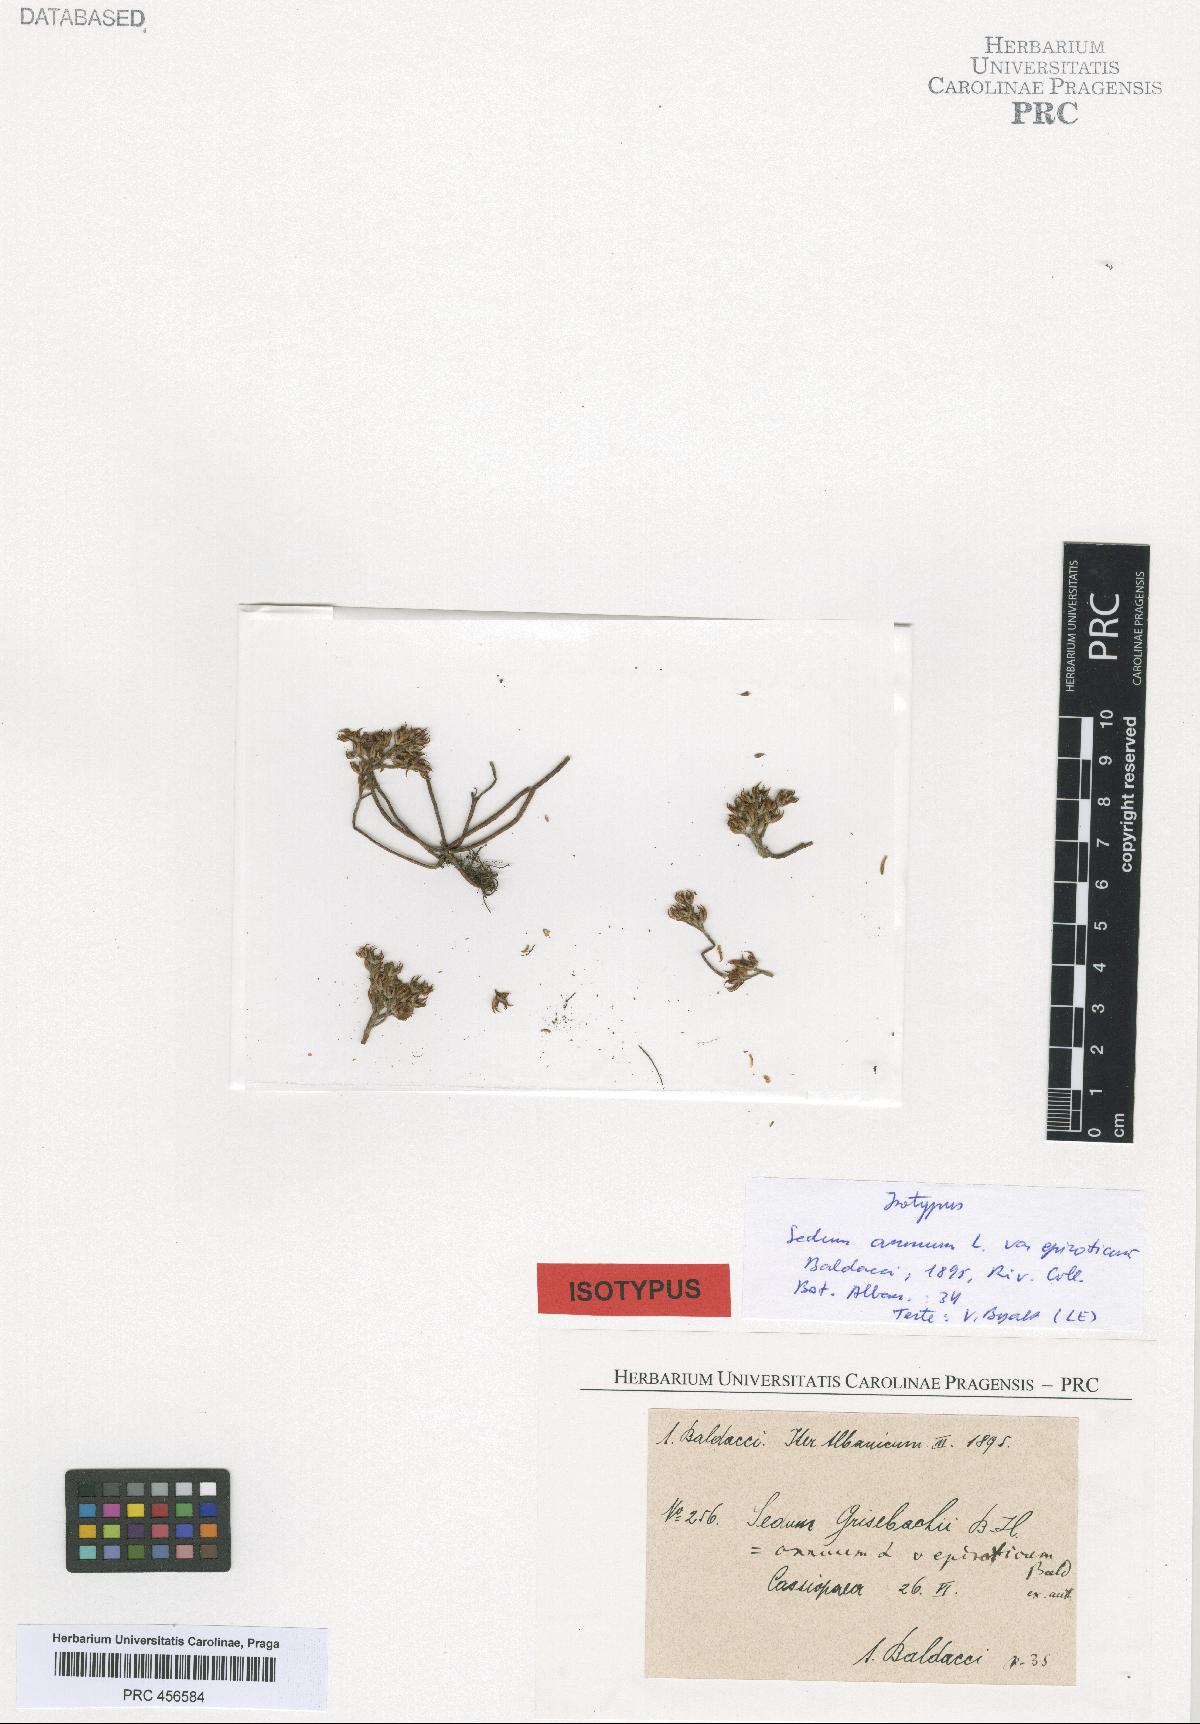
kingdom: Plantae
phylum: Tracheophyta
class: Magnoliopsida
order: Saxifragales
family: Crassulaceae
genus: Sedum
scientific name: Sedum eriocarpum
